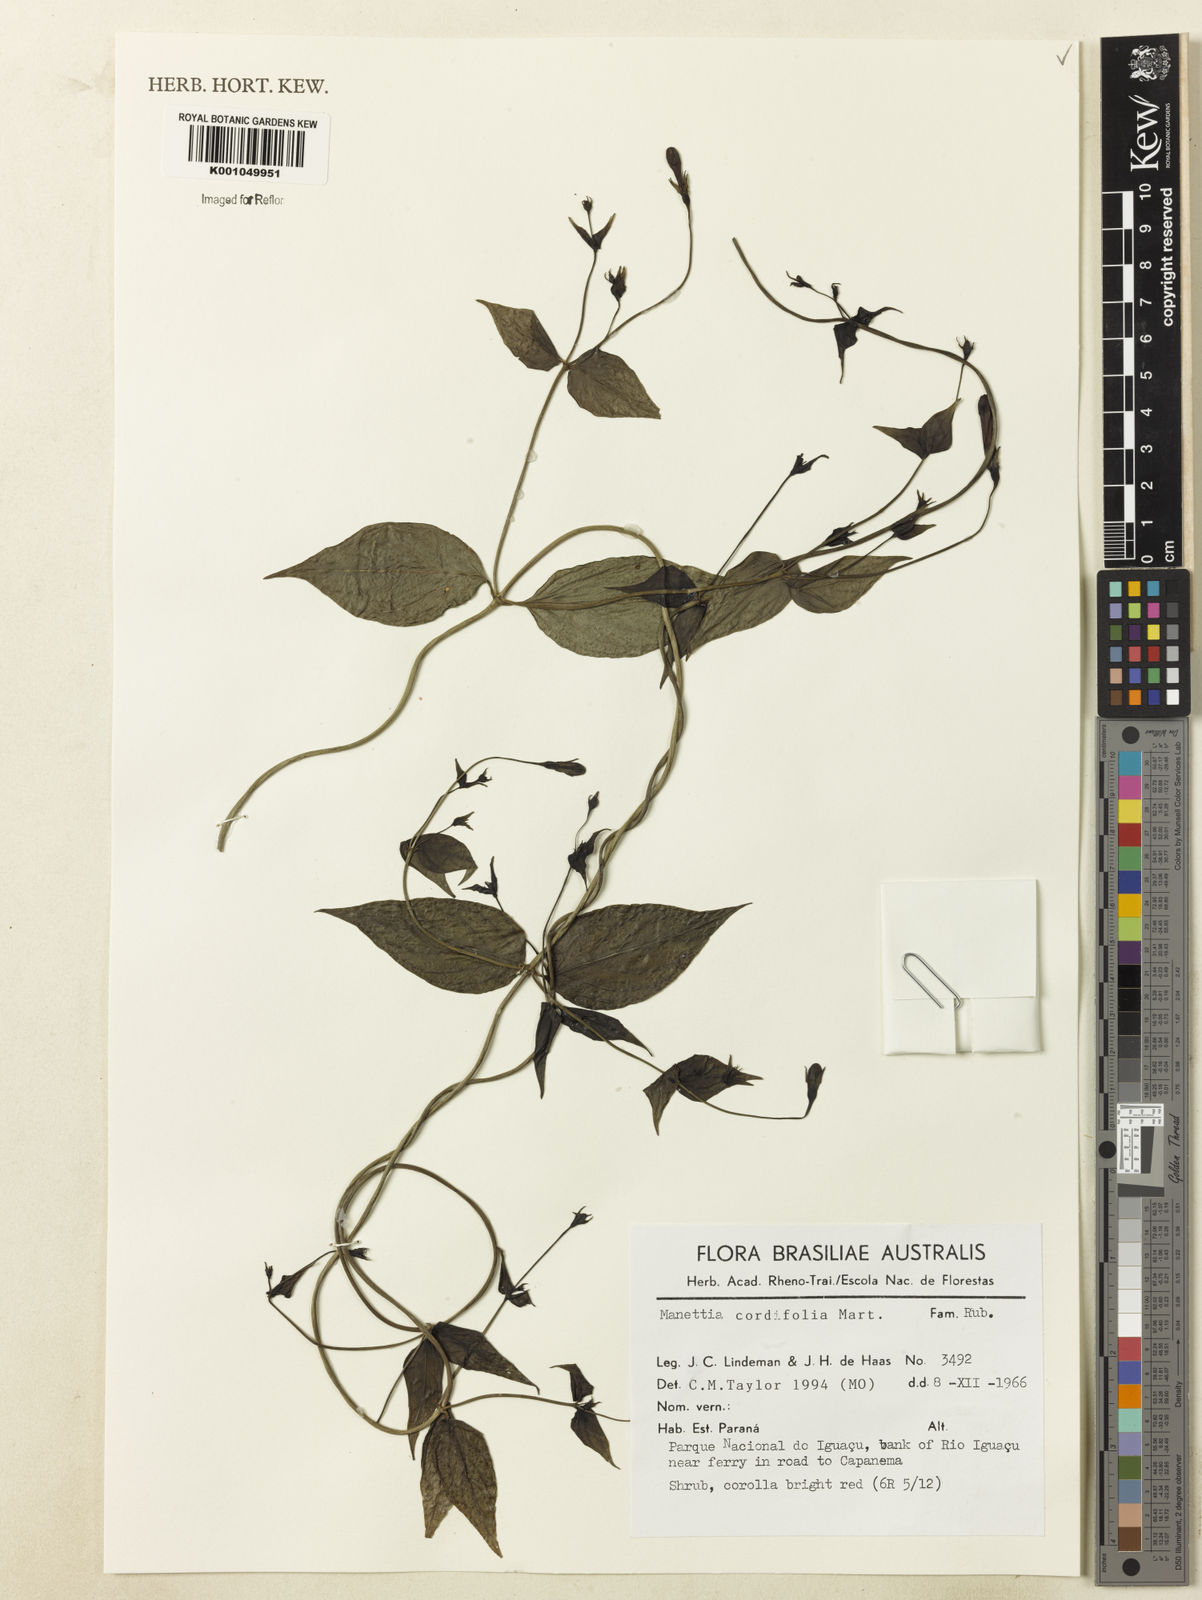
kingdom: Plantae
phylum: Tracheophyta
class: Magnoliopsida
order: Gentianales
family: Rubiaceae
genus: Manettia
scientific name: Manettia cordifolia
